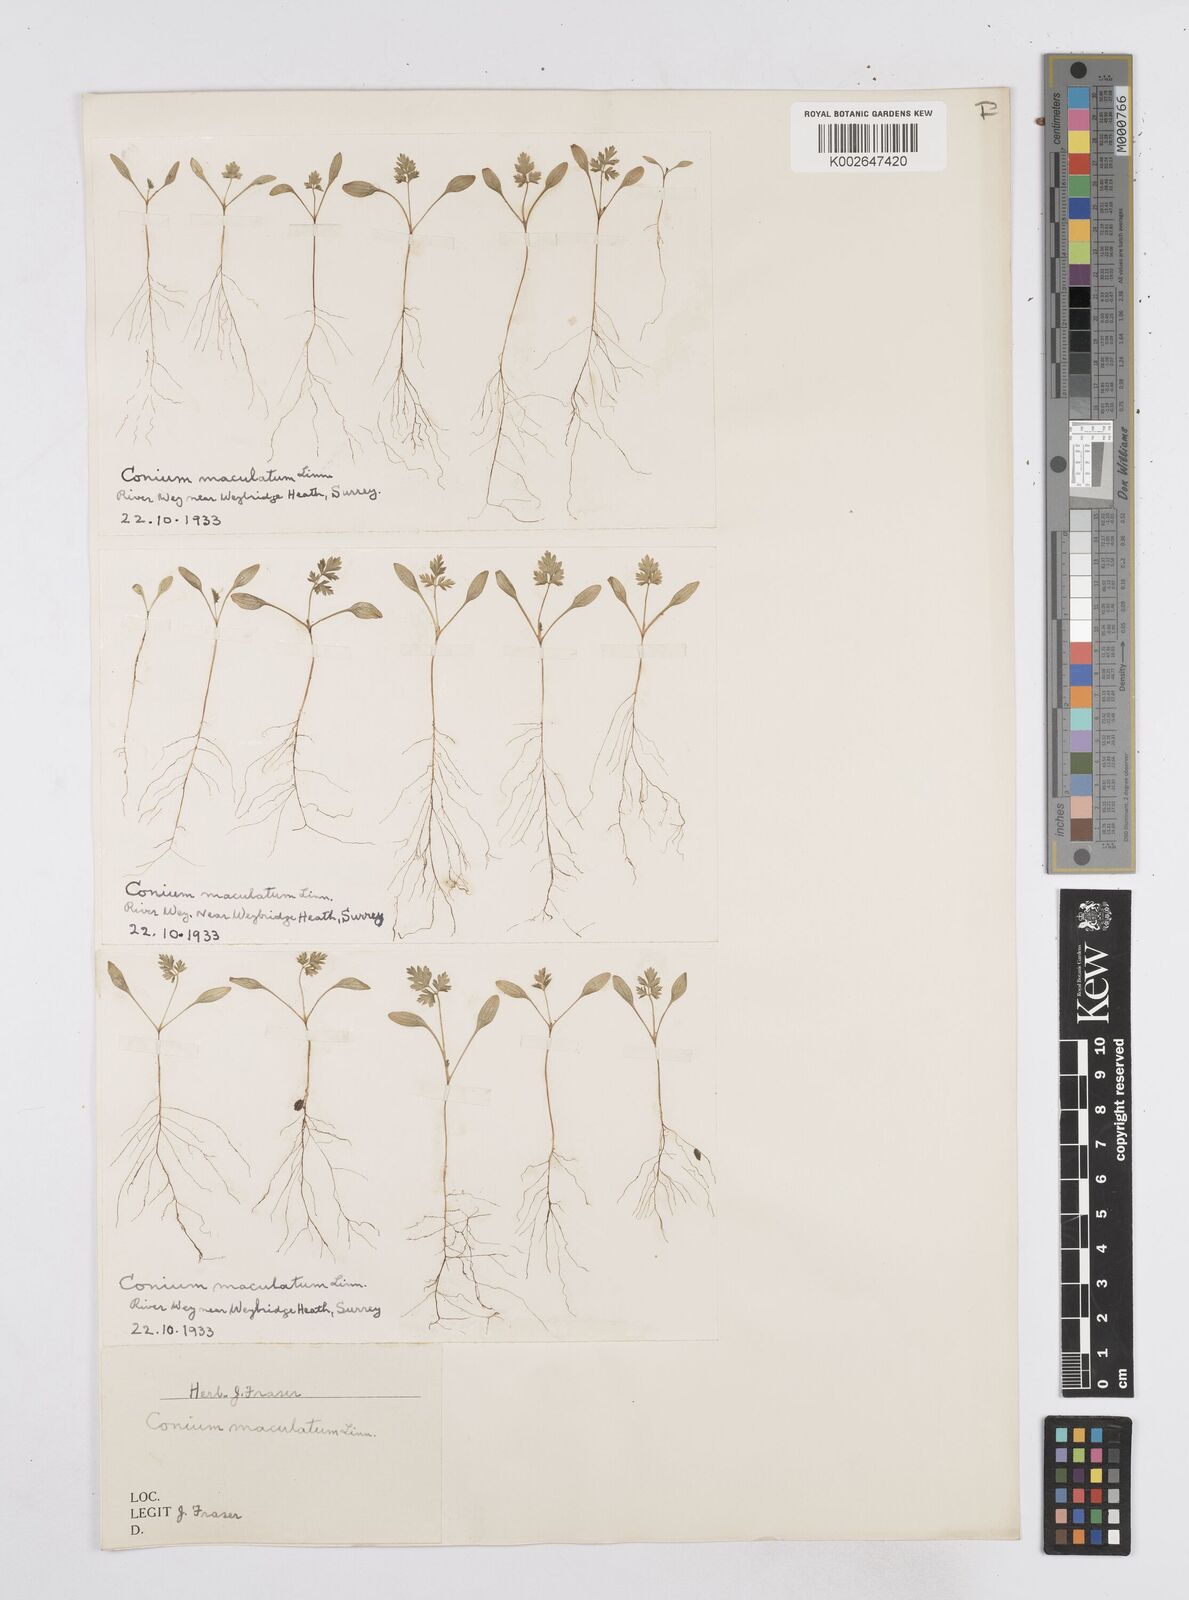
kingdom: Plantae
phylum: Tracheophyta
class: Magnoliopsida
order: Apiales
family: Apiaceae
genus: Conium
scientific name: Conium maculatum
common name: Hemlock
